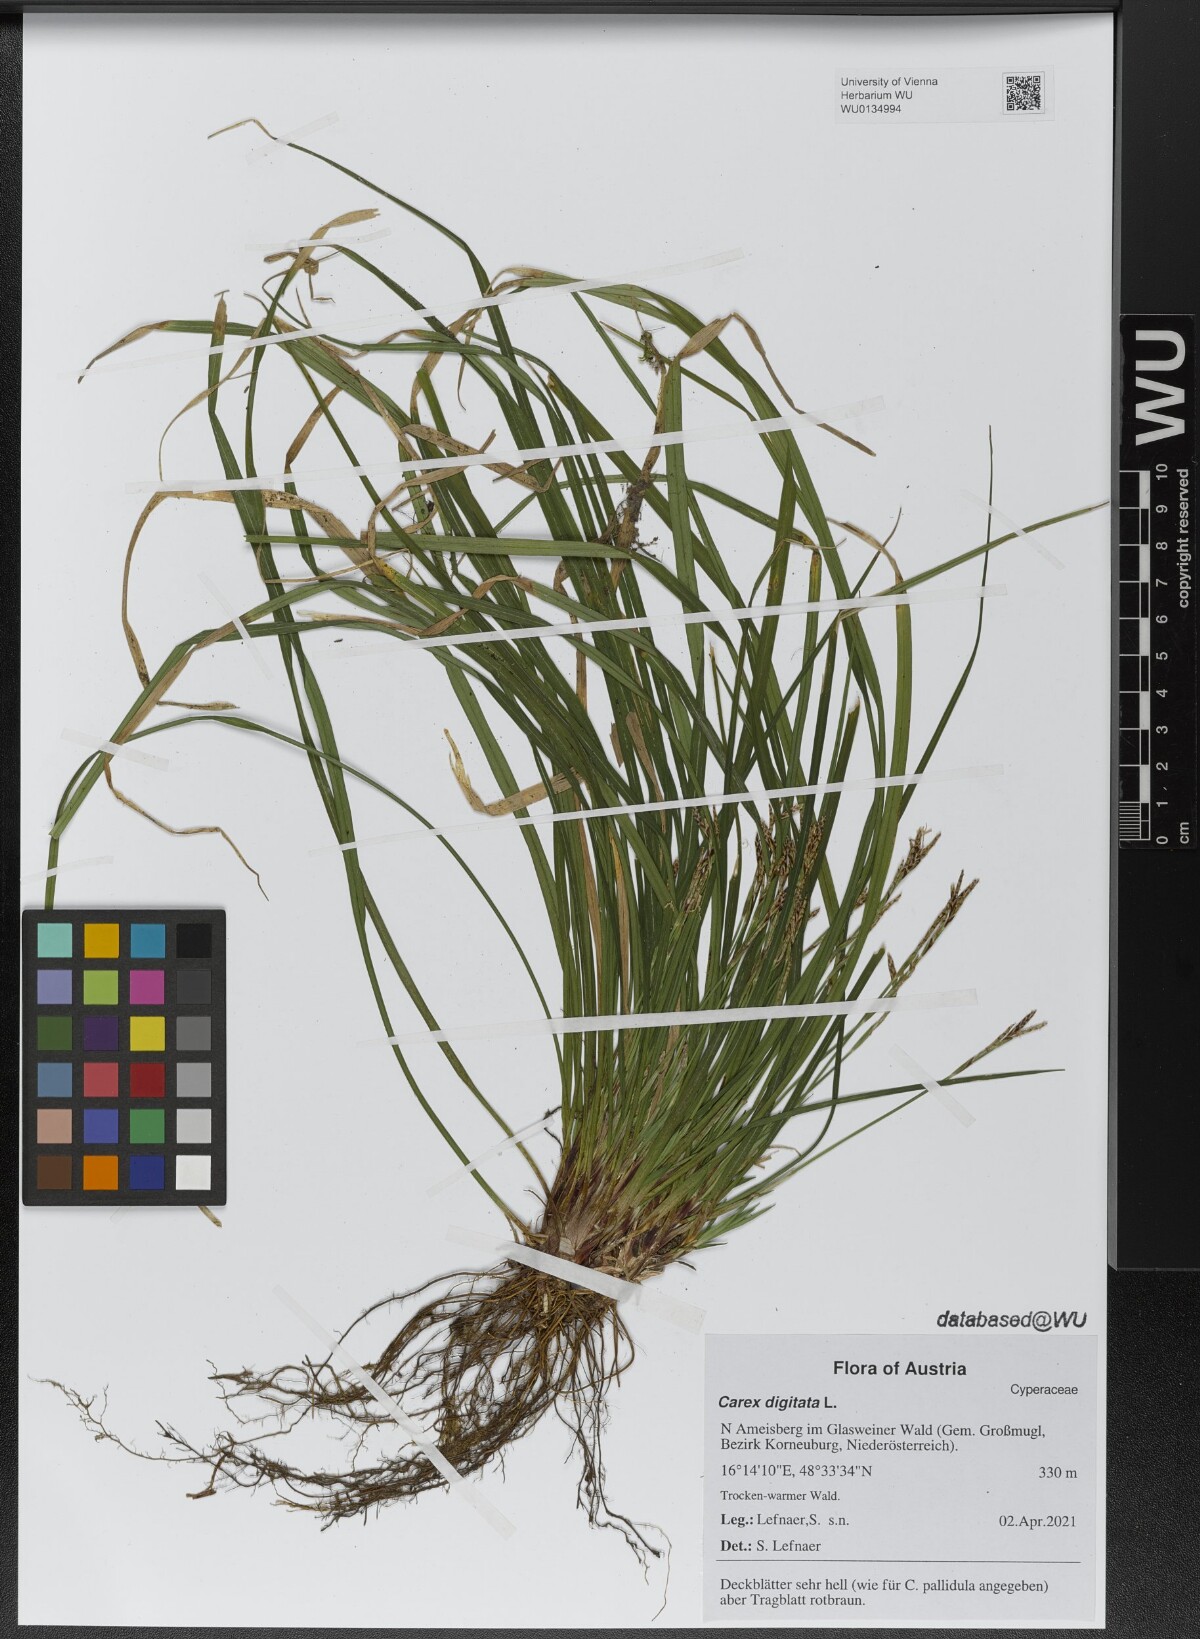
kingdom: Plantae
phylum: Tracheophyta
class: Liliopsida
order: Poales
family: Cyperaceae
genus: Carex
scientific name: Carex digitata
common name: Fingered sedge
